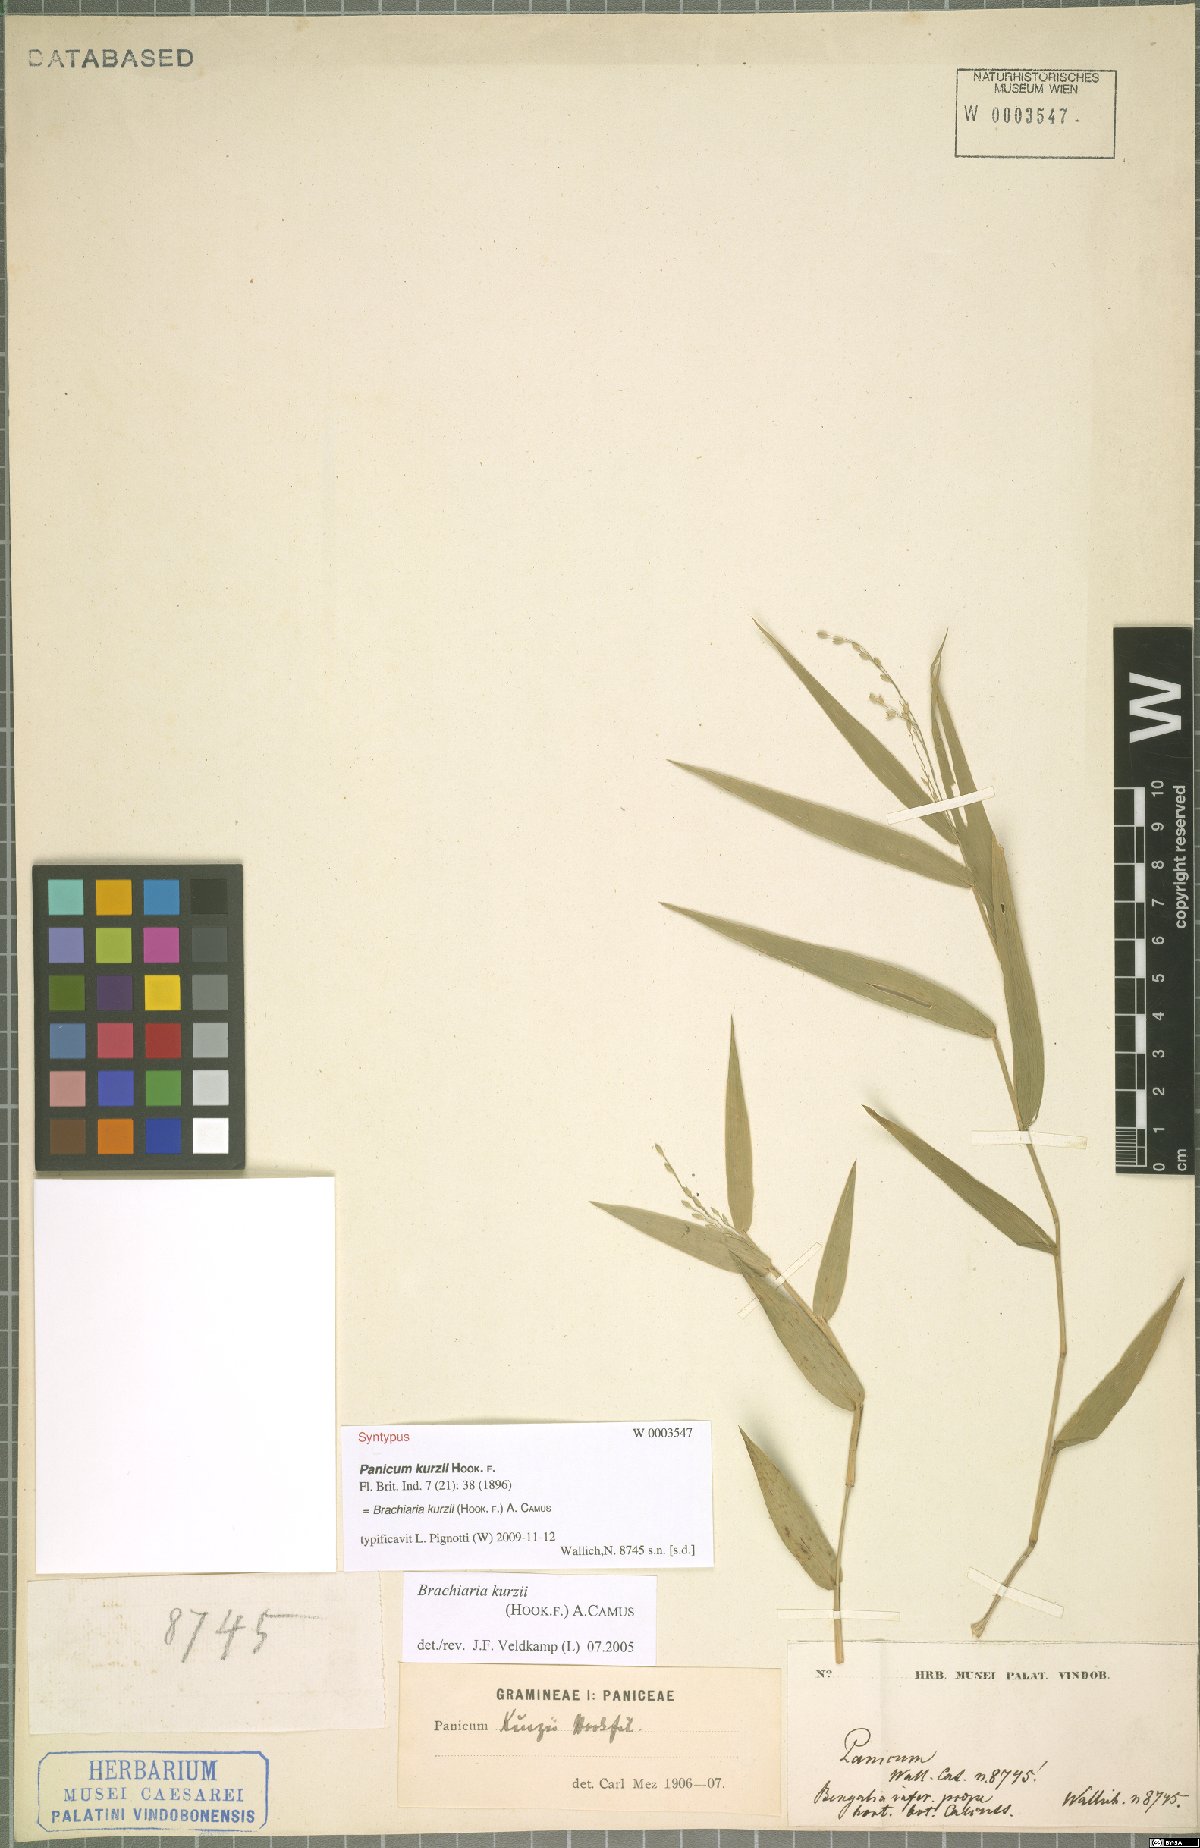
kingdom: Plantae
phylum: Tracheophyta
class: Liliopsida
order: Poales
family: Poaceae
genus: Urochloa
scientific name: Urochloa kurzii
